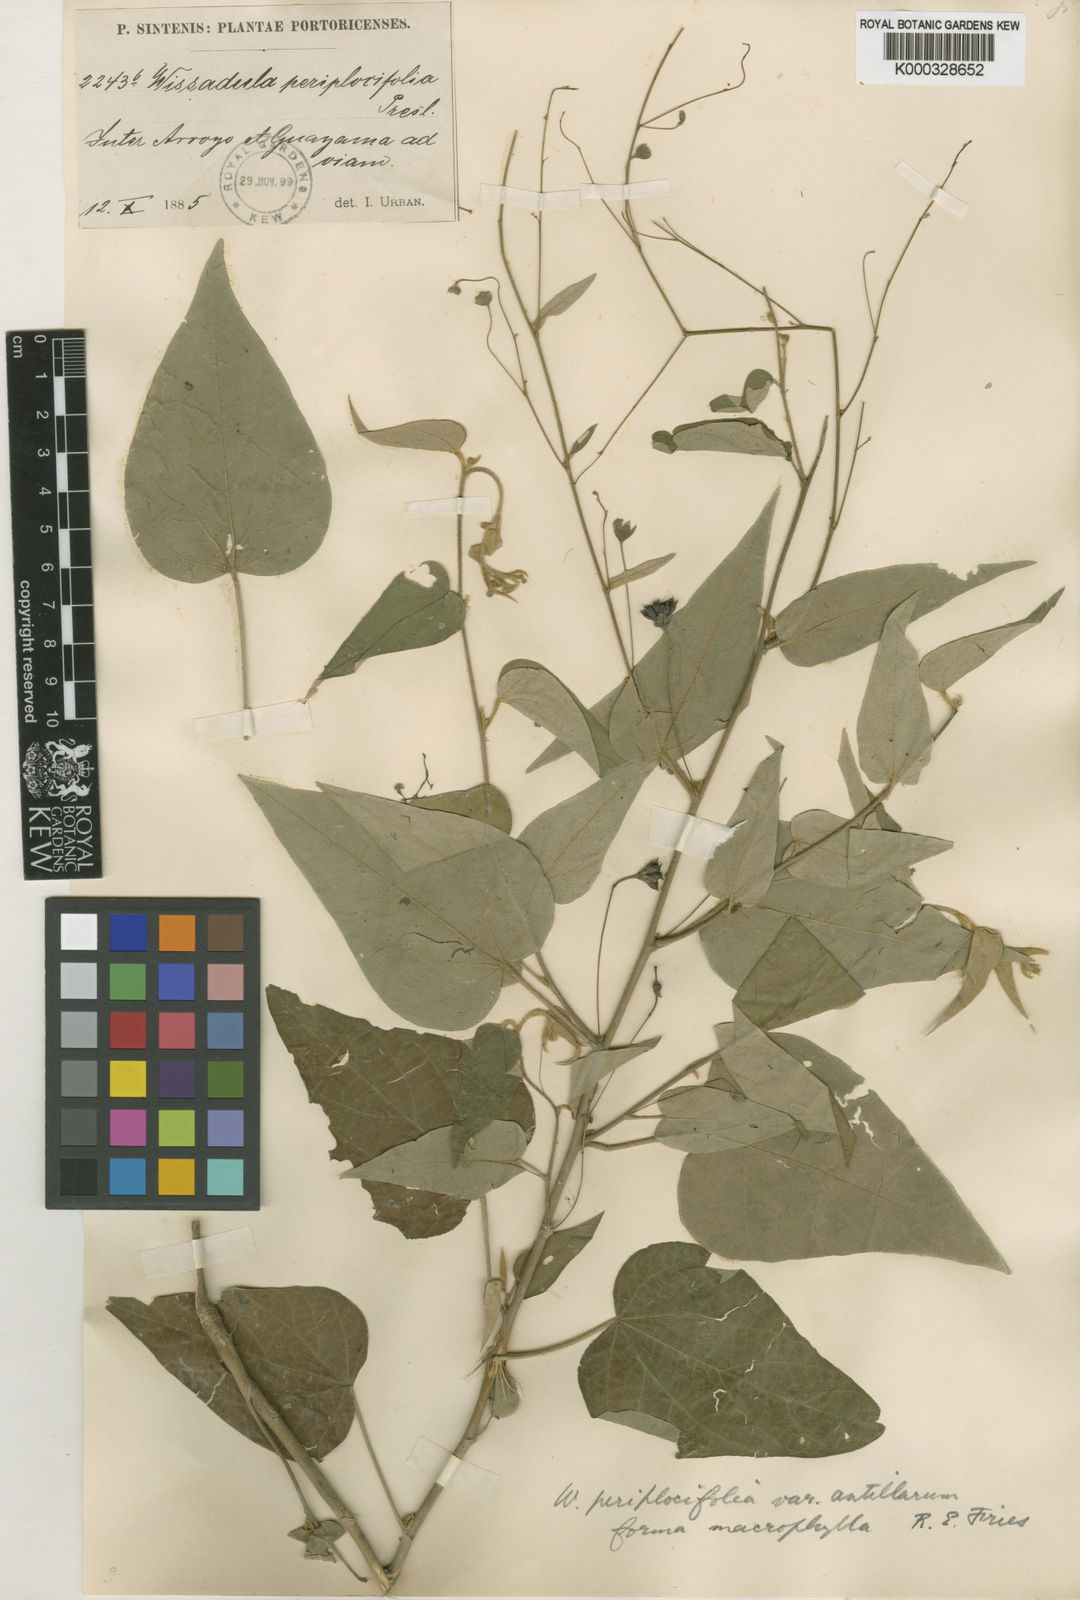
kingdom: Plantae
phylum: Tracheophyta
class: Magnoliopsida
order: Malvales
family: Malvaceae
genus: Wissadula
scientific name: Wissadula
